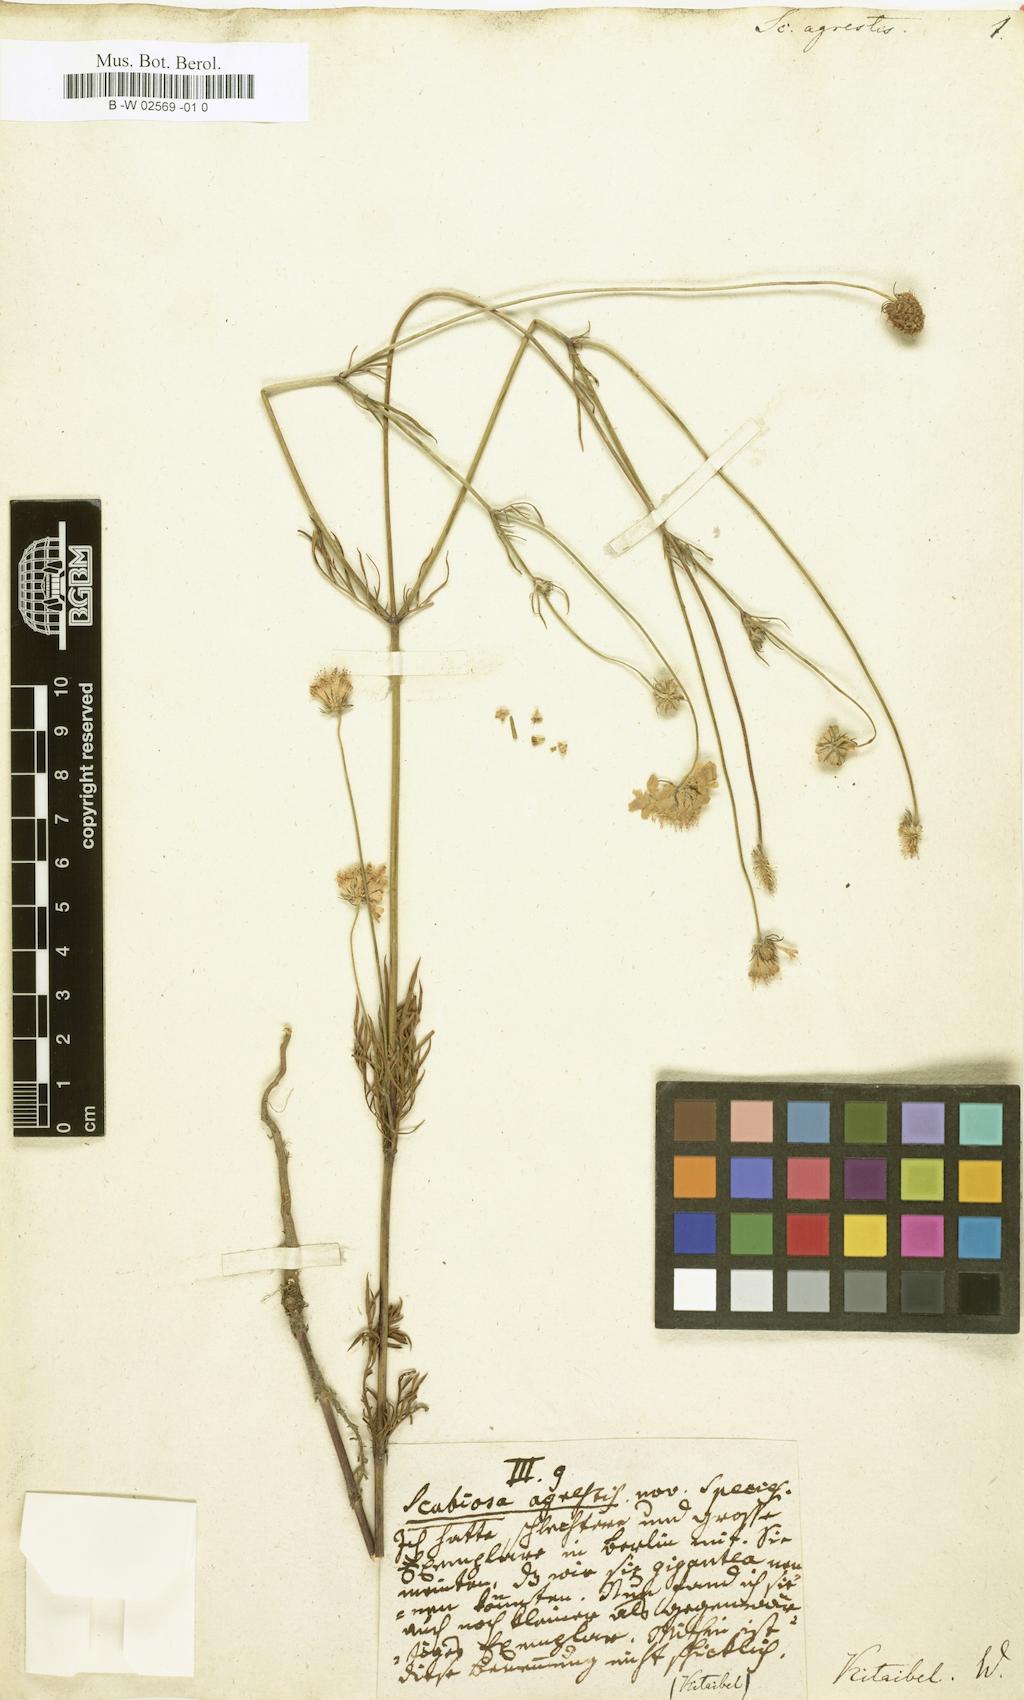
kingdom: Plantae
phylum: Tracheophyta
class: Magnoliopsida
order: Dipsacales
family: Caprifoliaceae
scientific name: Caprifoliaceae
